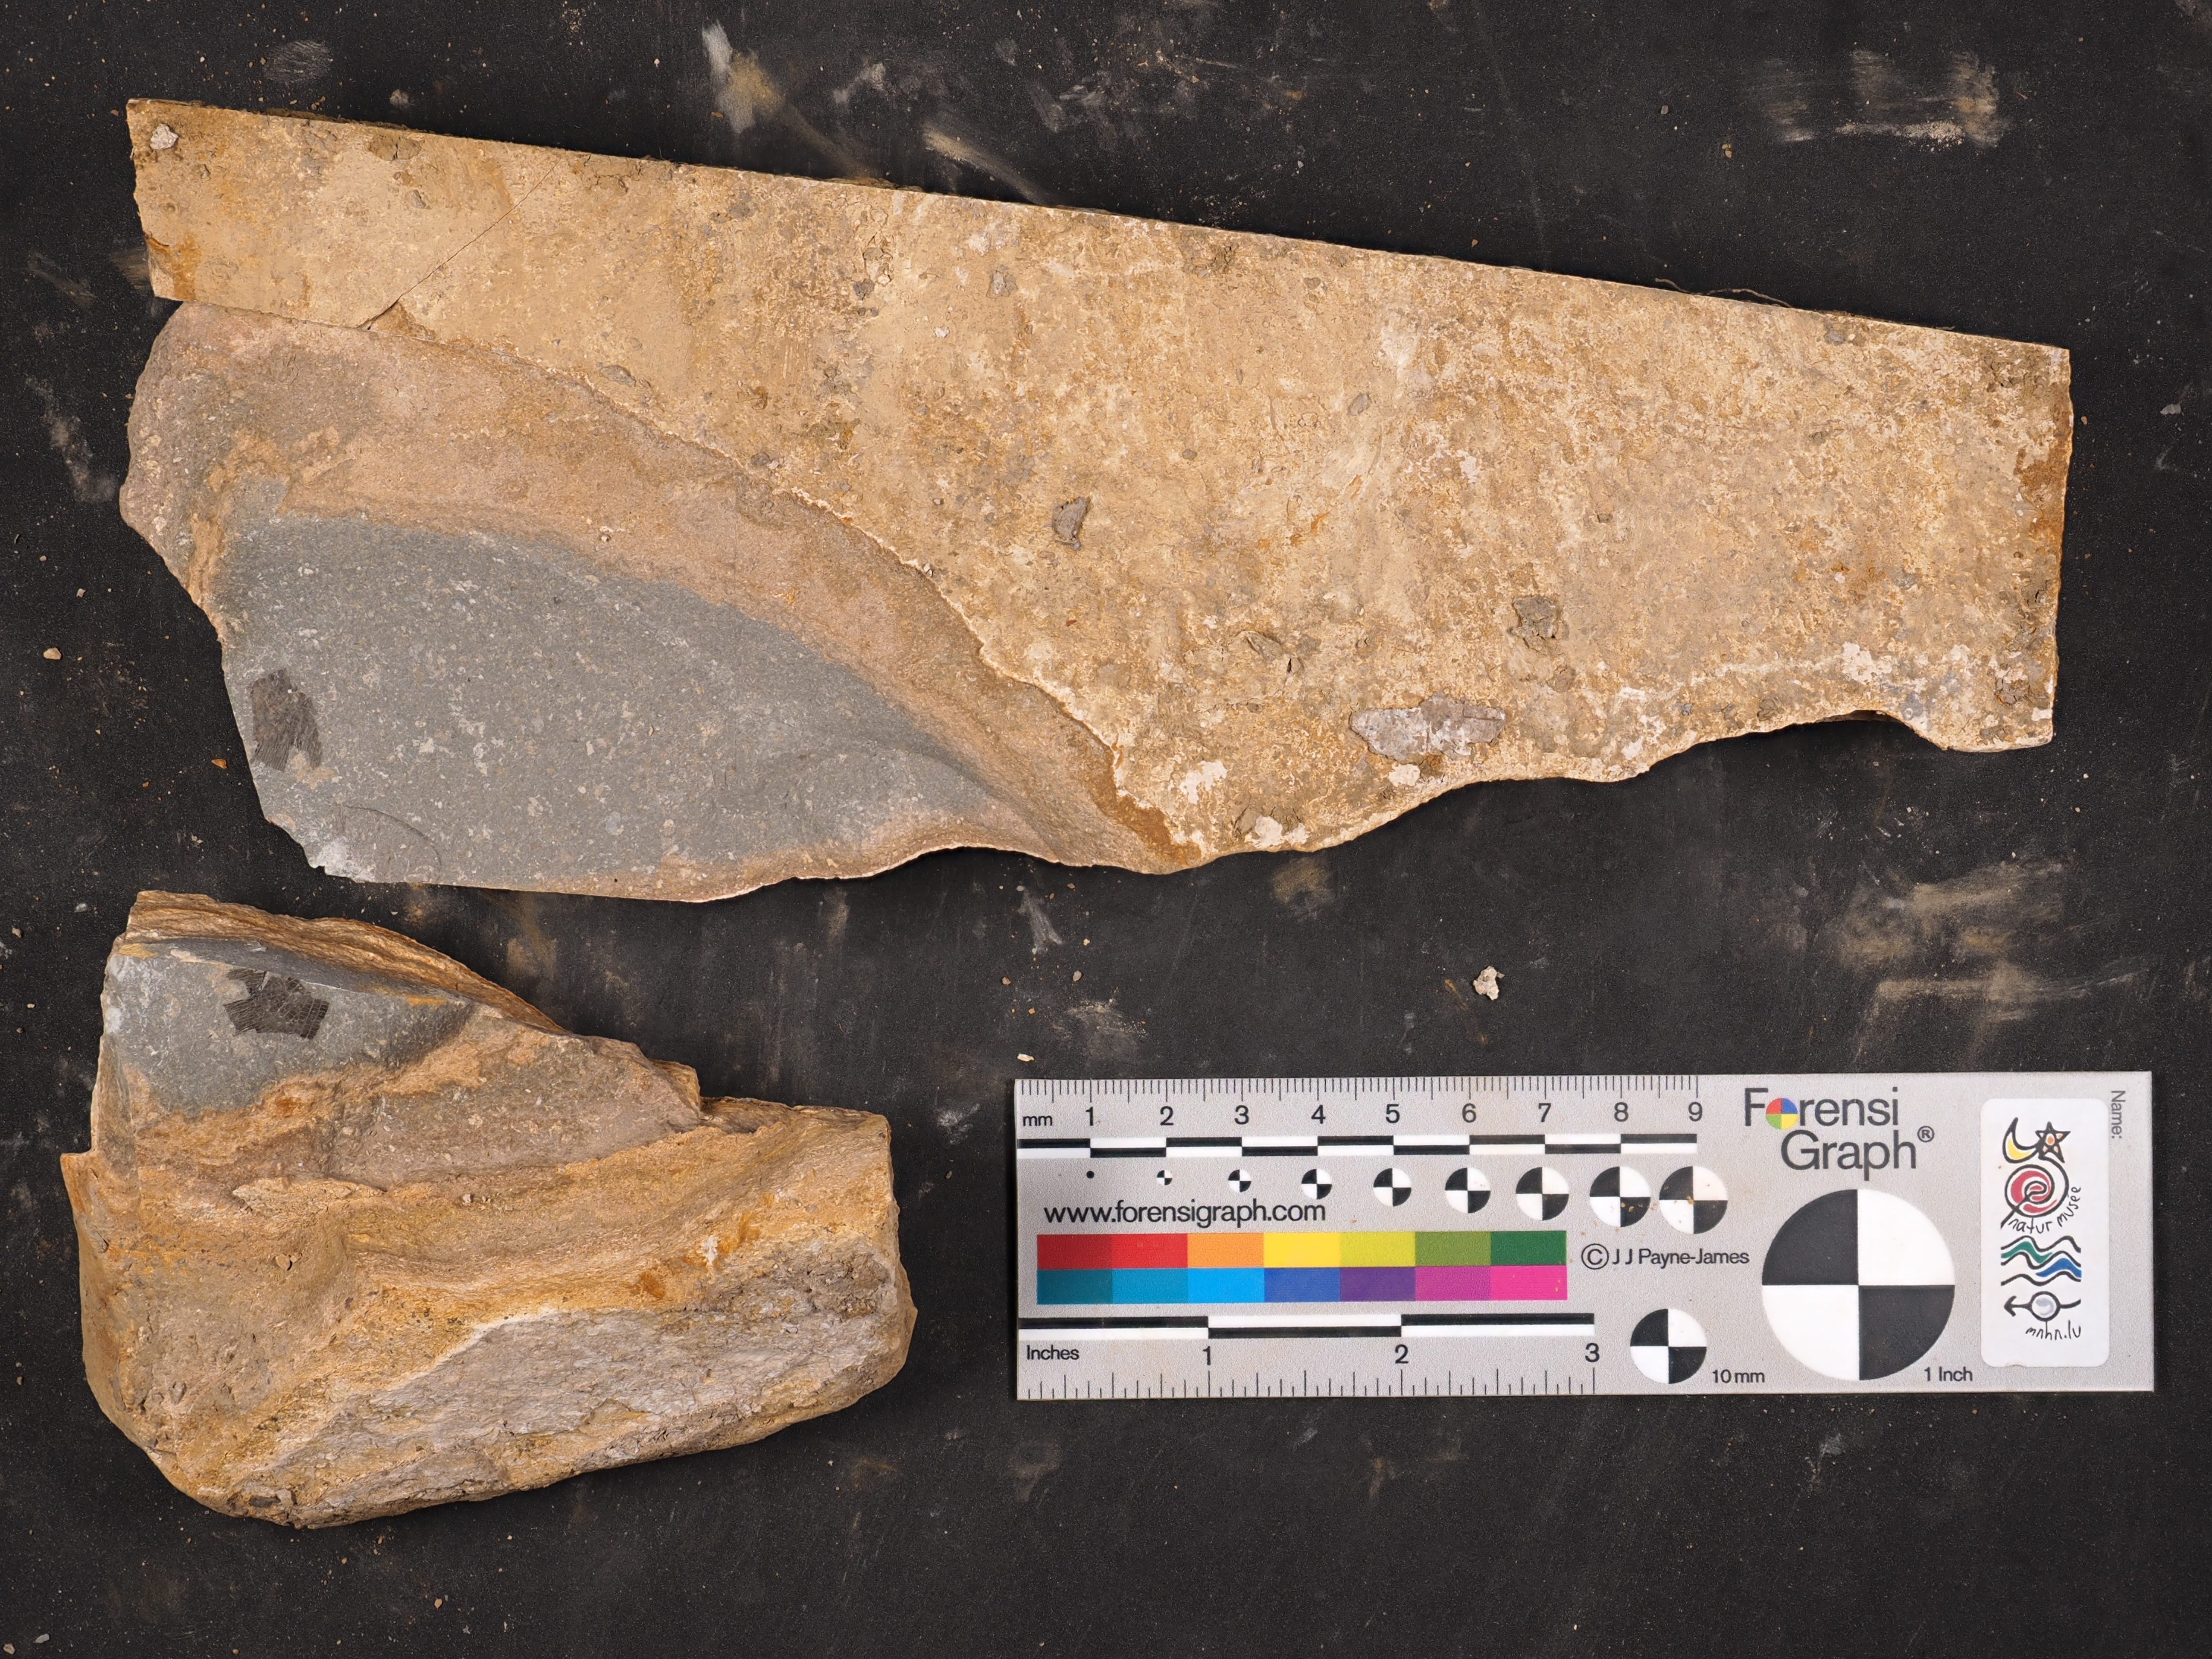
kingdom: Animalia
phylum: Chordata
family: Dapediidae
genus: Tetragonolepis
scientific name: Tetragonolepis
